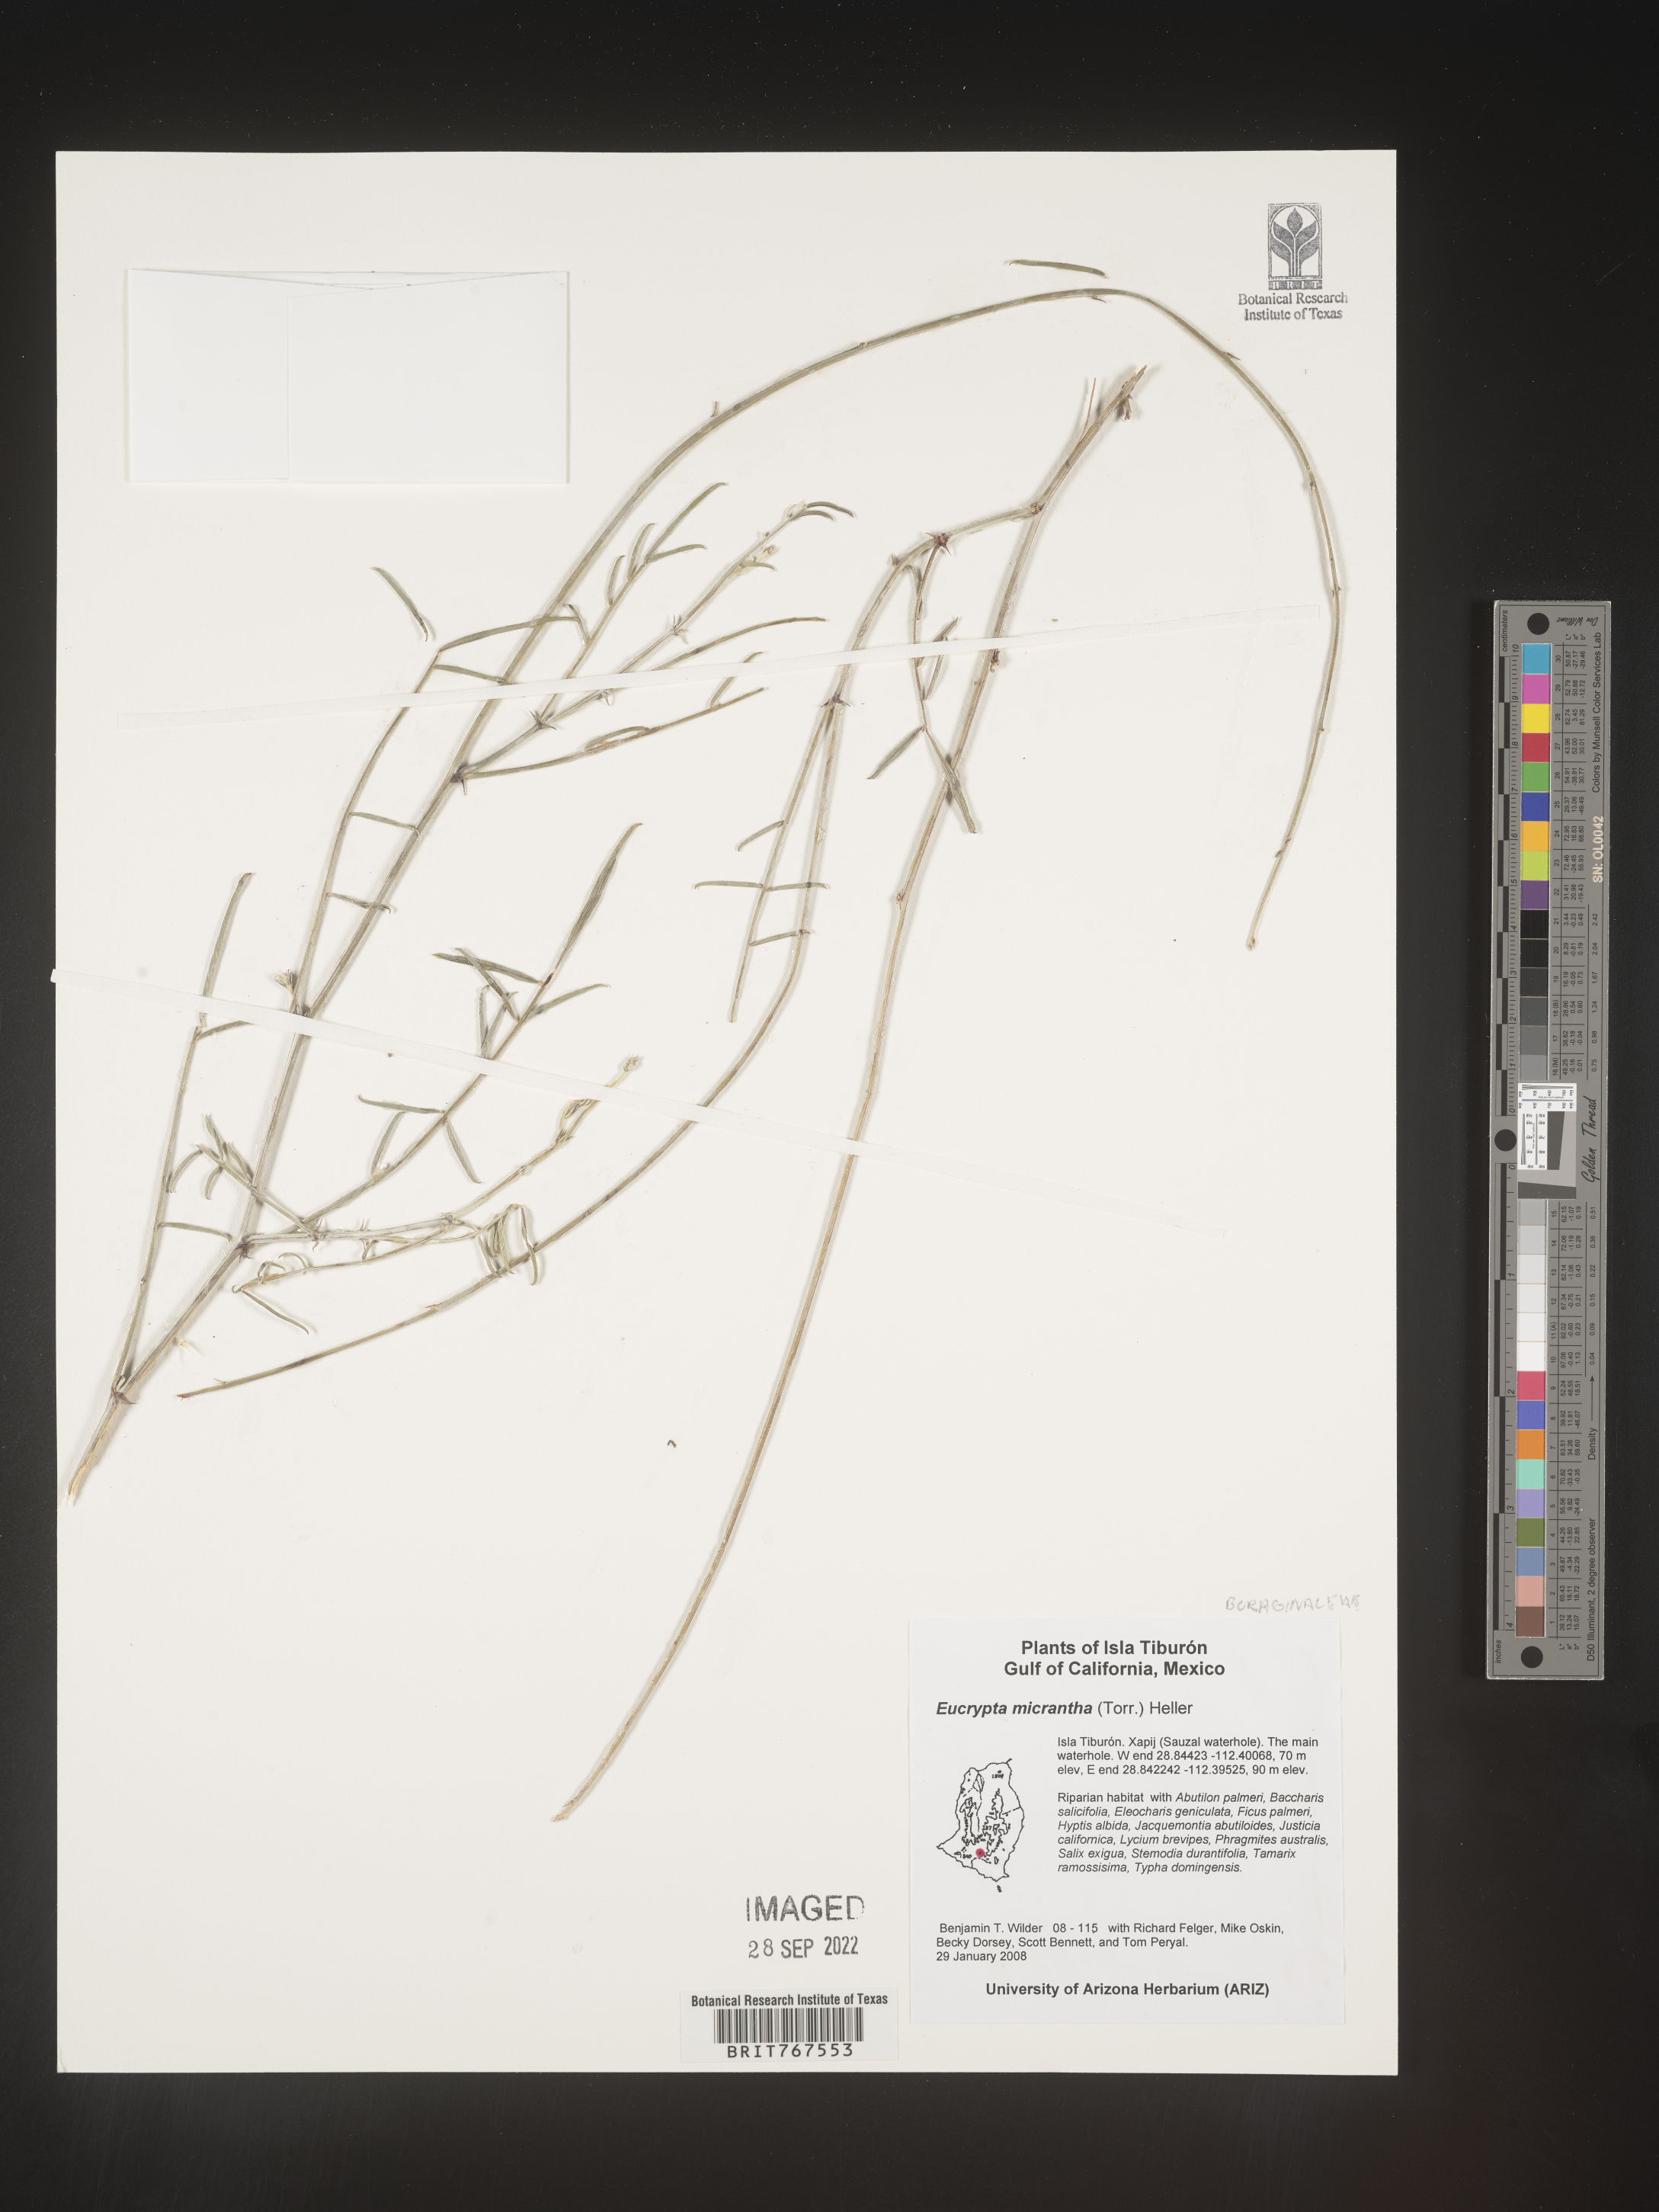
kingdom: Plantae
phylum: Tracheophyta
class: Magnoliopsida
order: Boraginales
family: Hydrophyllaceae
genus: Eucrypta
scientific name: Eucrypta micrantha
